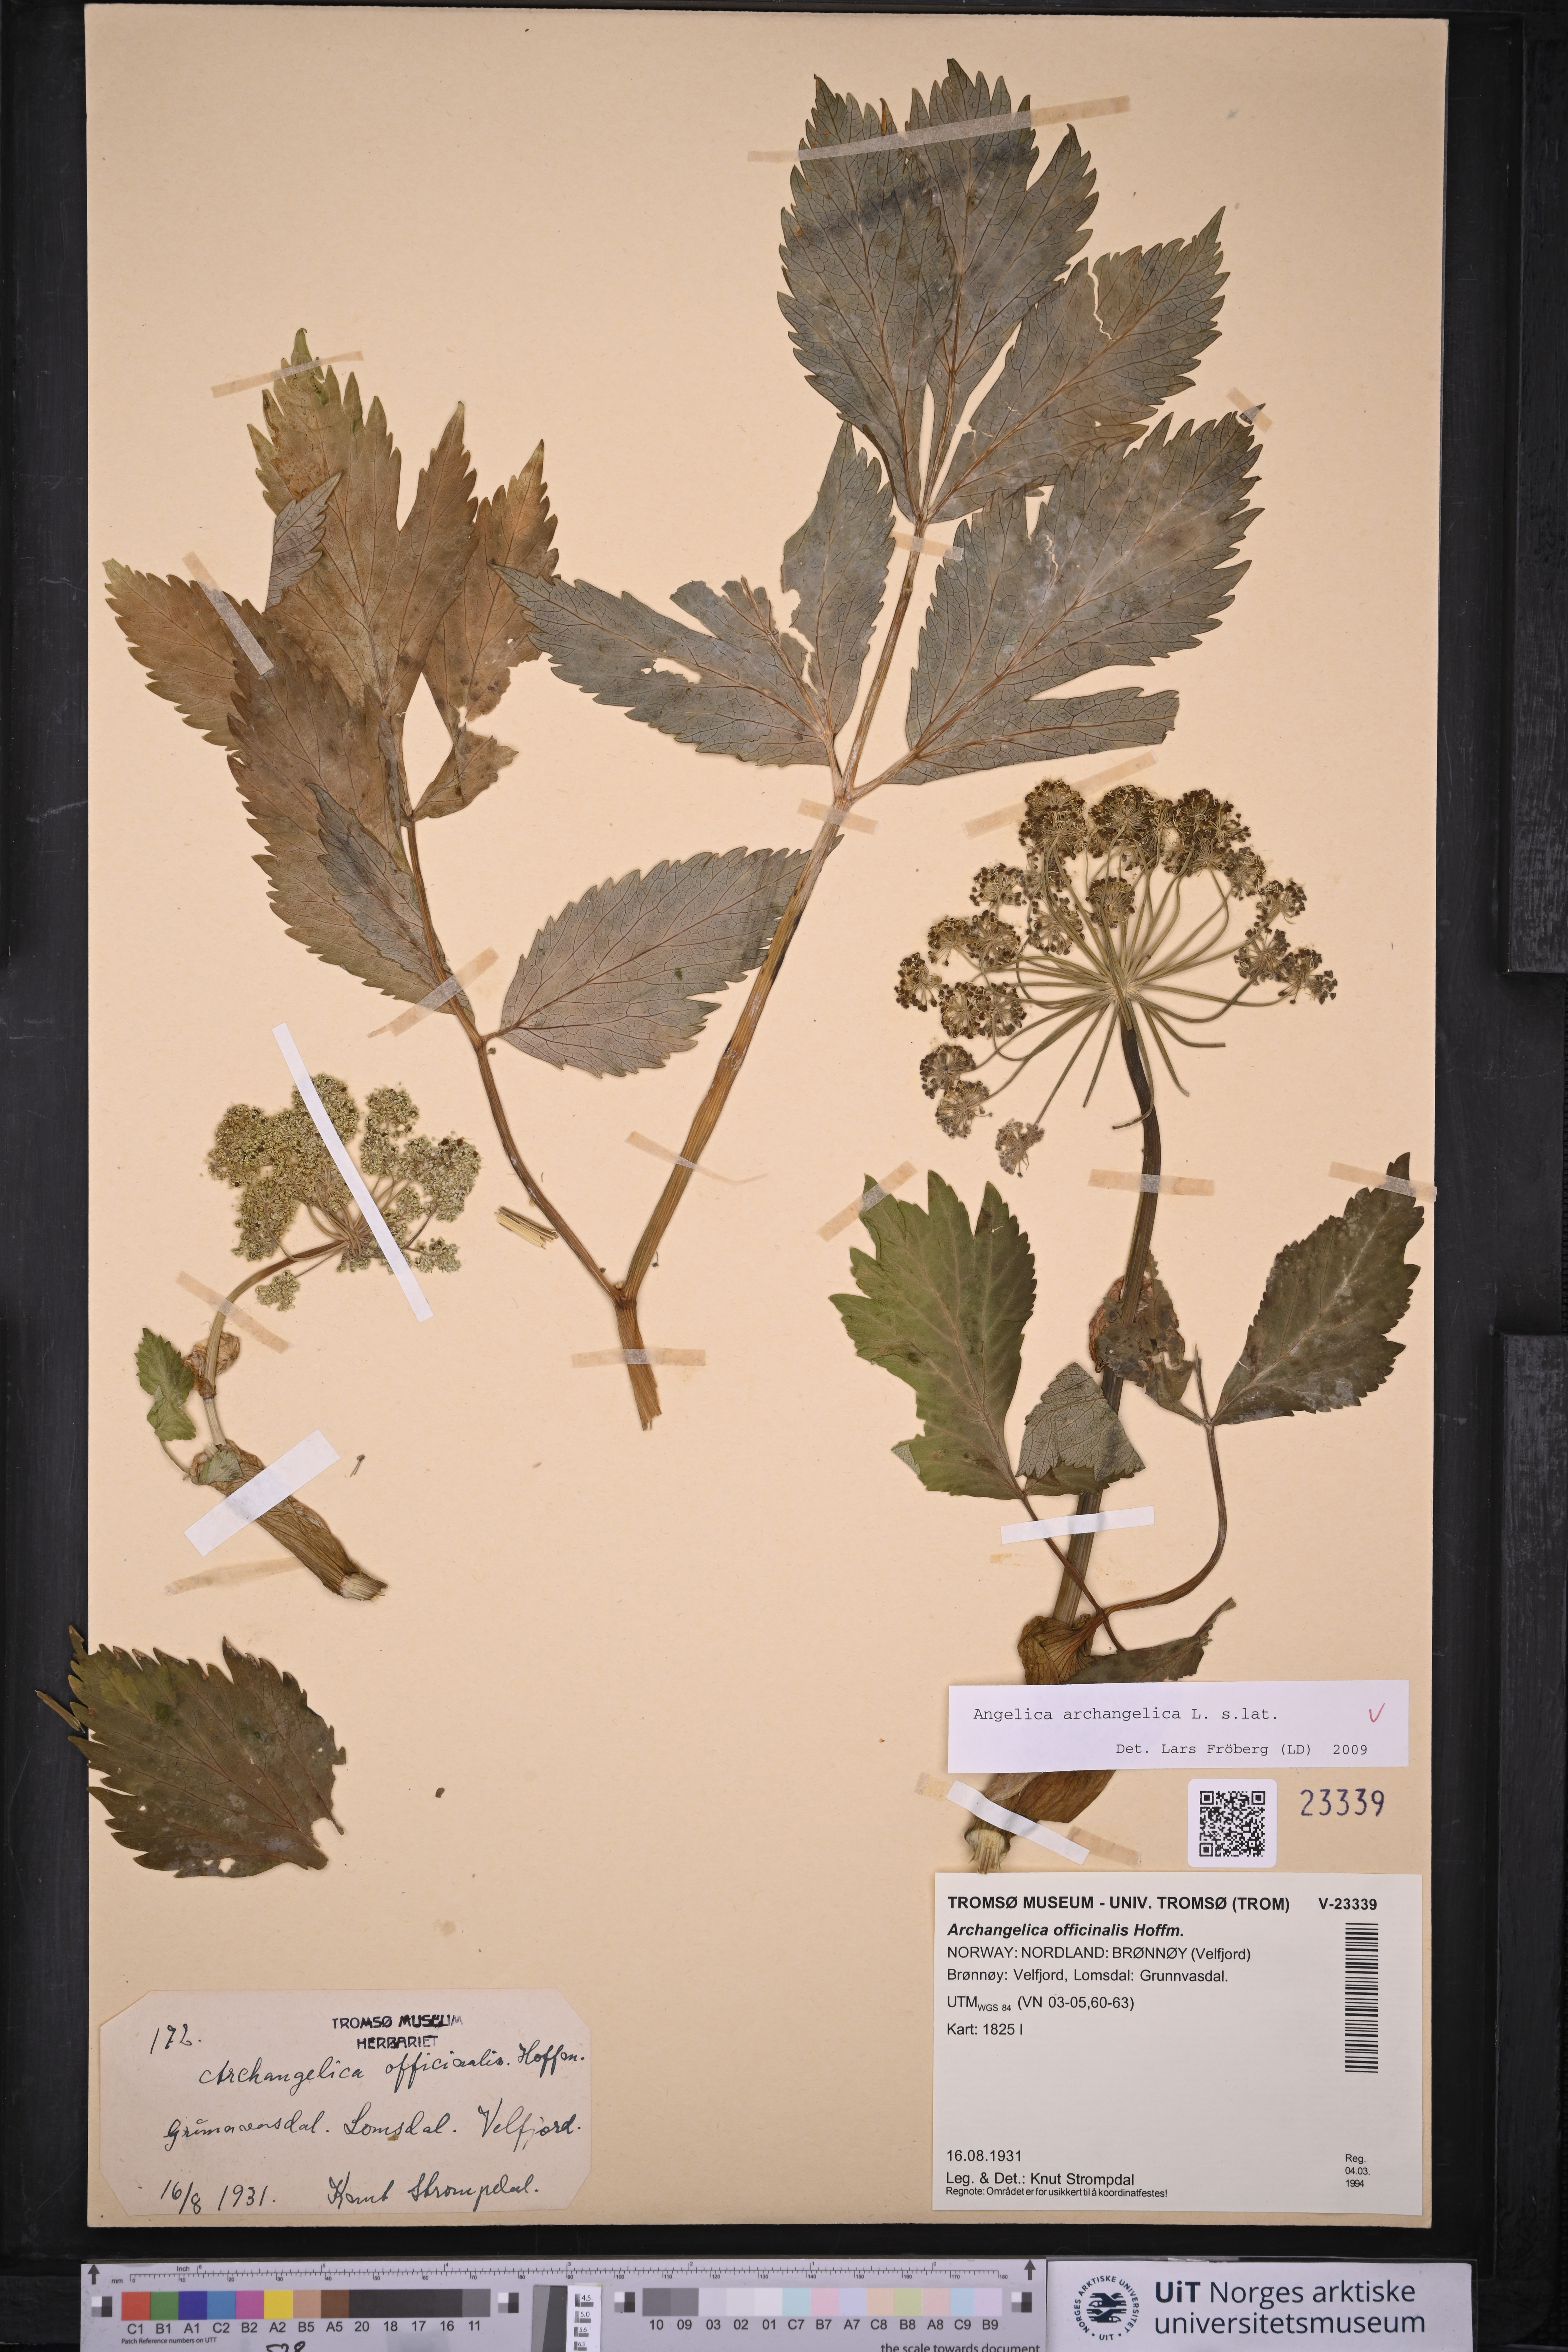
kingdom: Plantae
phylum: Tracheophyta
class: Magnoliopsida
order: Apiales
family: Apiaceae
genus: Angelica
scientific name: Angelica archangelica
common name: Garden angelica
